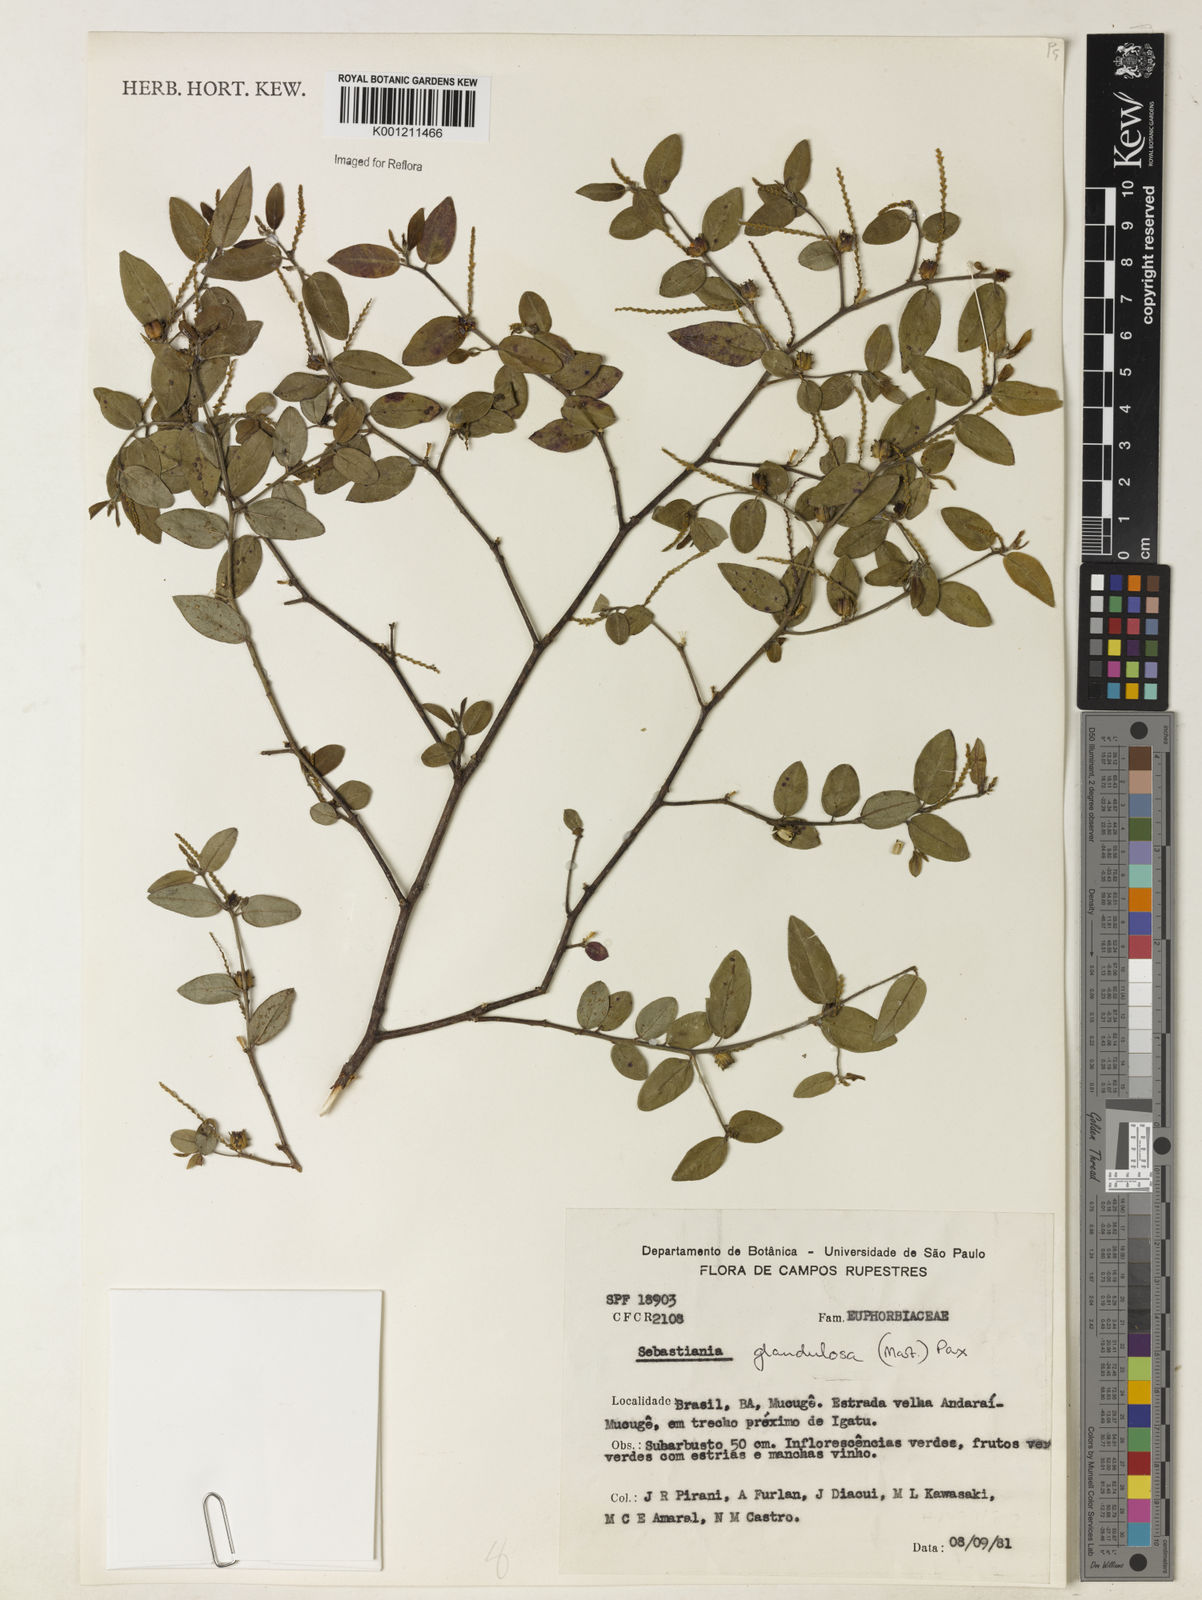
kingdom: Plantae
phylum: Tracheophyta
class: Magnoliopsida
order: Malpighiales
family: Euphorbiaceae
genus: Microstachys
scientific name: Microstachys glandulosa
